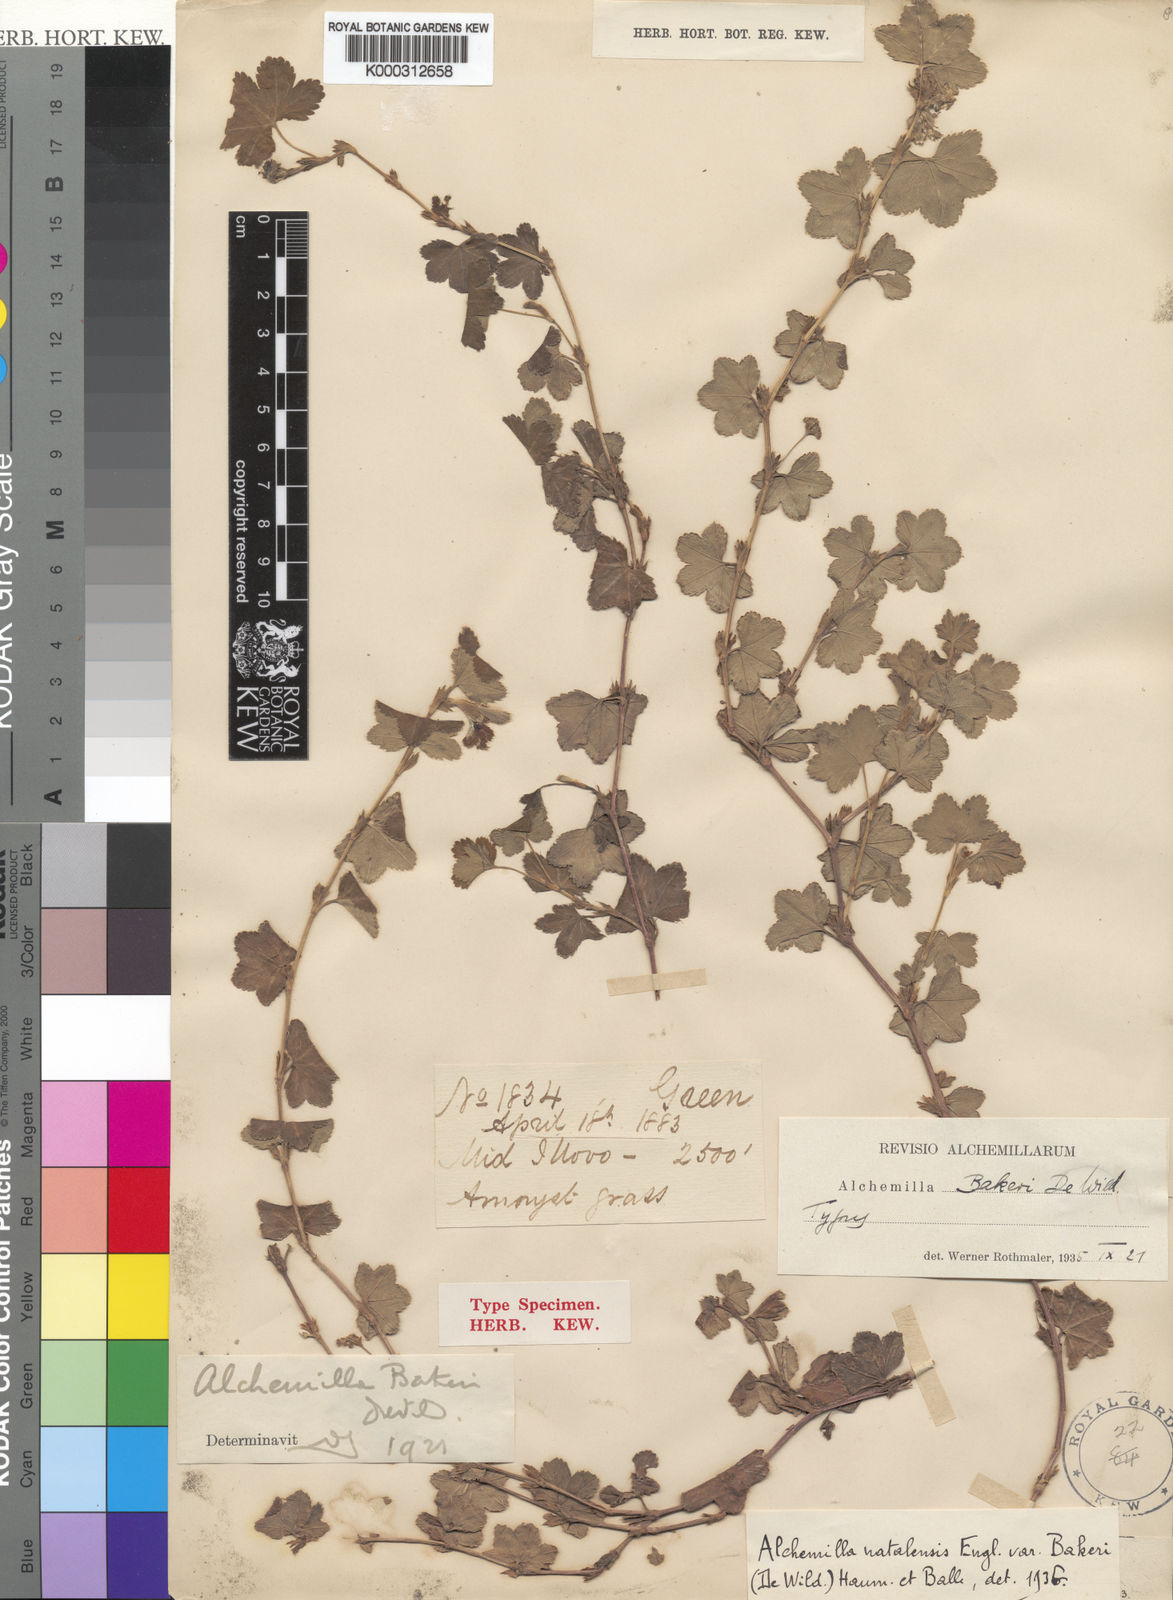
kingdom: Plantae
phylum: Tracheophyta
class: Magnoliopsida
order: Rosales
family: Rosaceae
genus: Alchemilla
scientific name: Alchemilla bakeri
